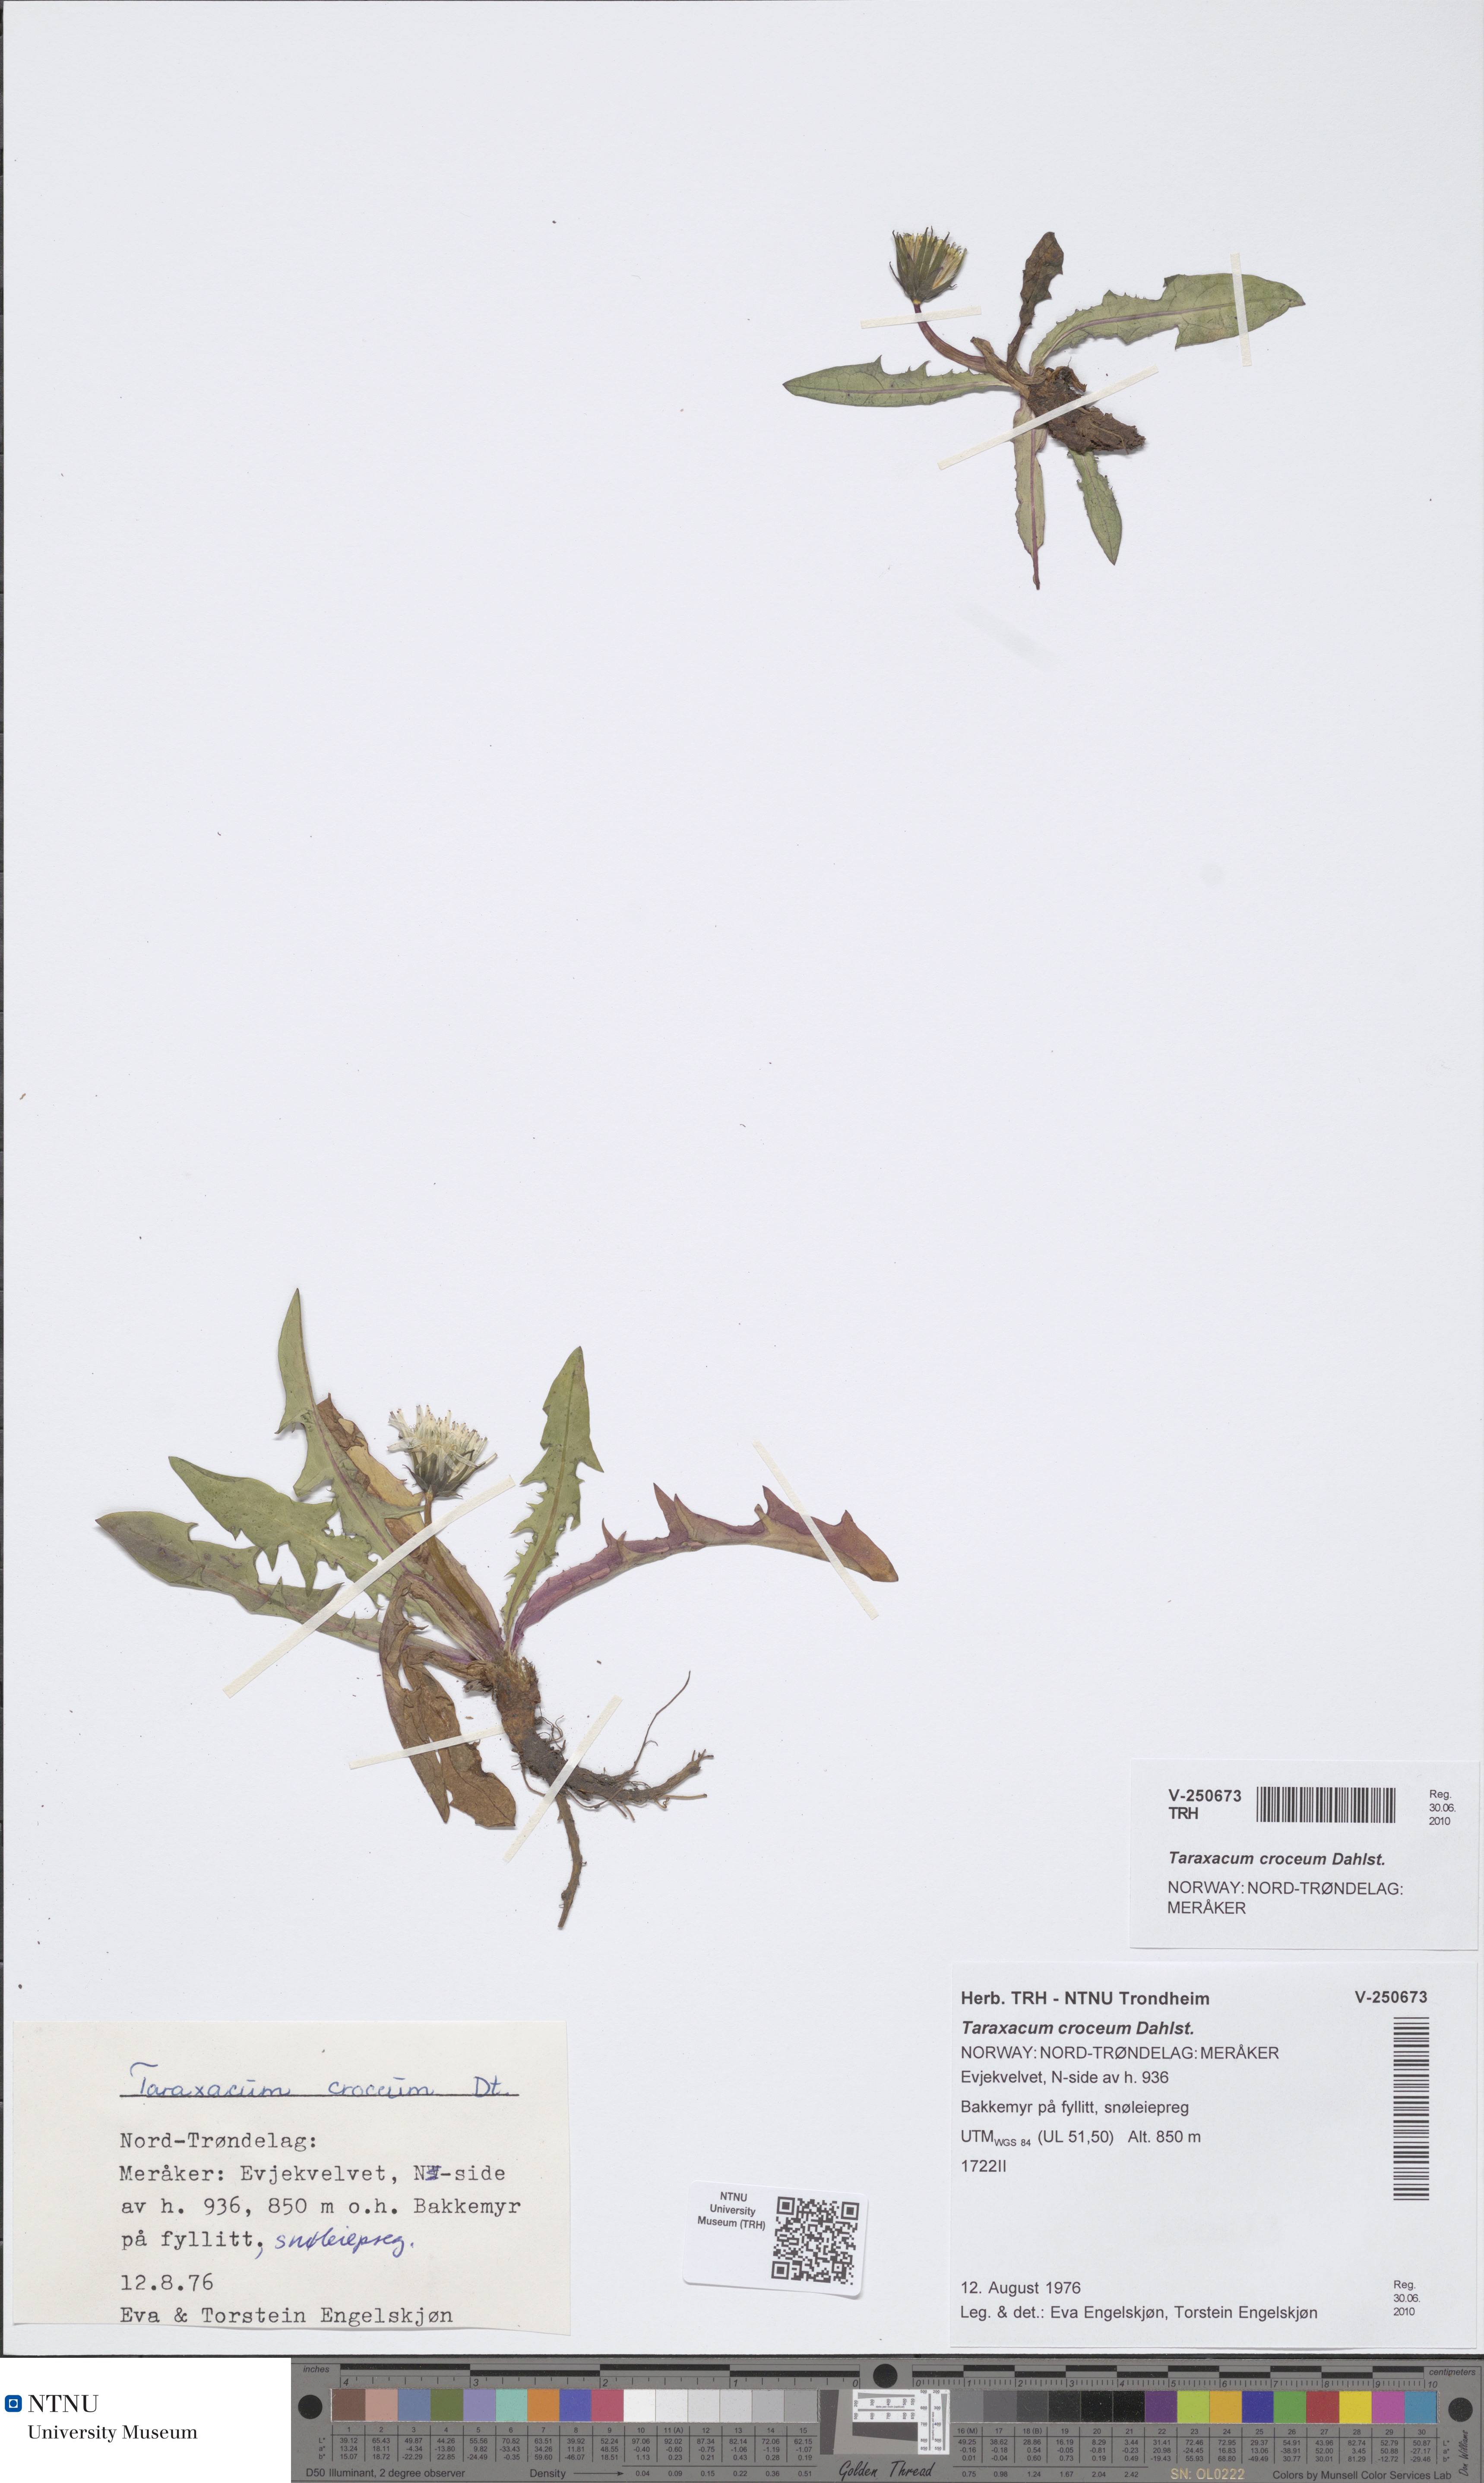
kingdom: Plantae
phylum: Tracheophyta
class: Magnoliopsida
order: Asterales
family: Asteraceae
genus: Taraxacum
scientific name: Taraxacum croceum
